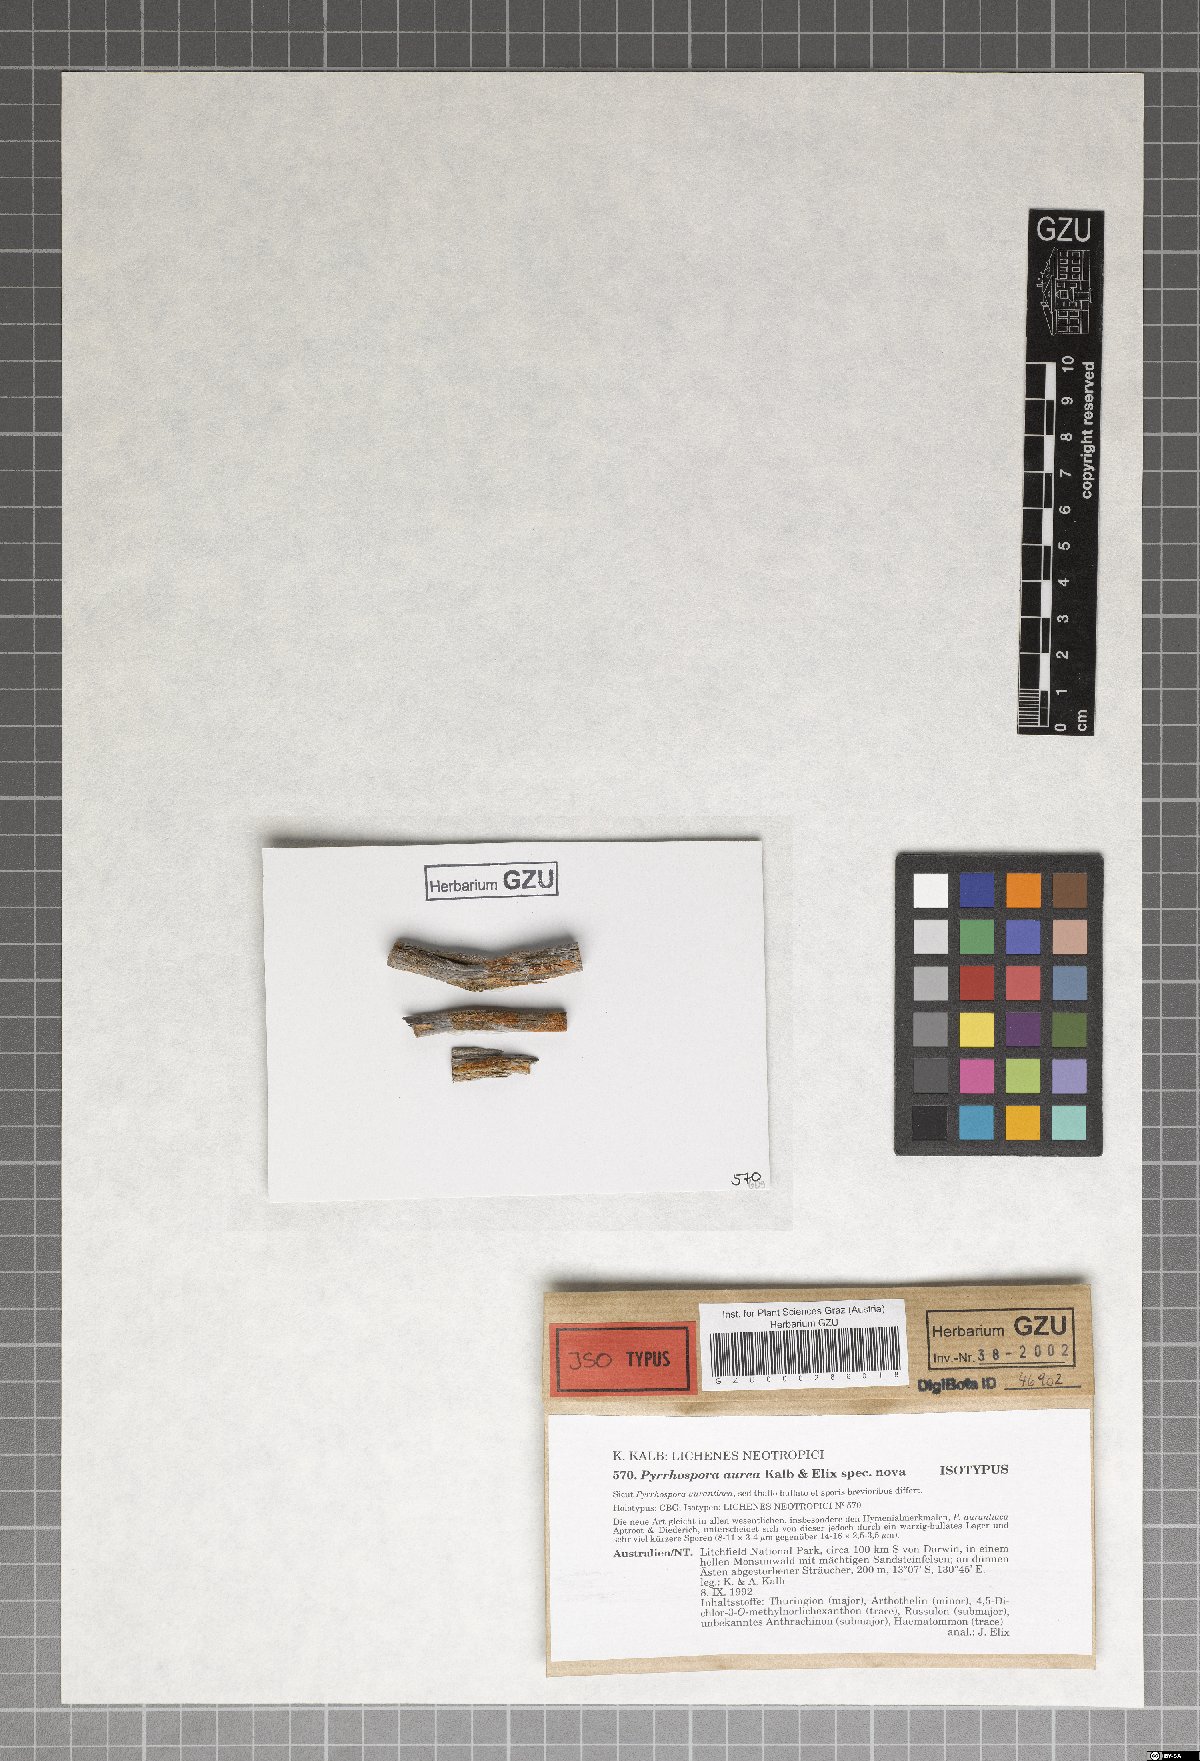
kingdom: Fungi
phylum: Ascomycota
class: Lecanoromycetes
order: Lecanorales
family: Ramboldiaceae
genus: Ramboldia
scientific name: Ramboldia aurea
